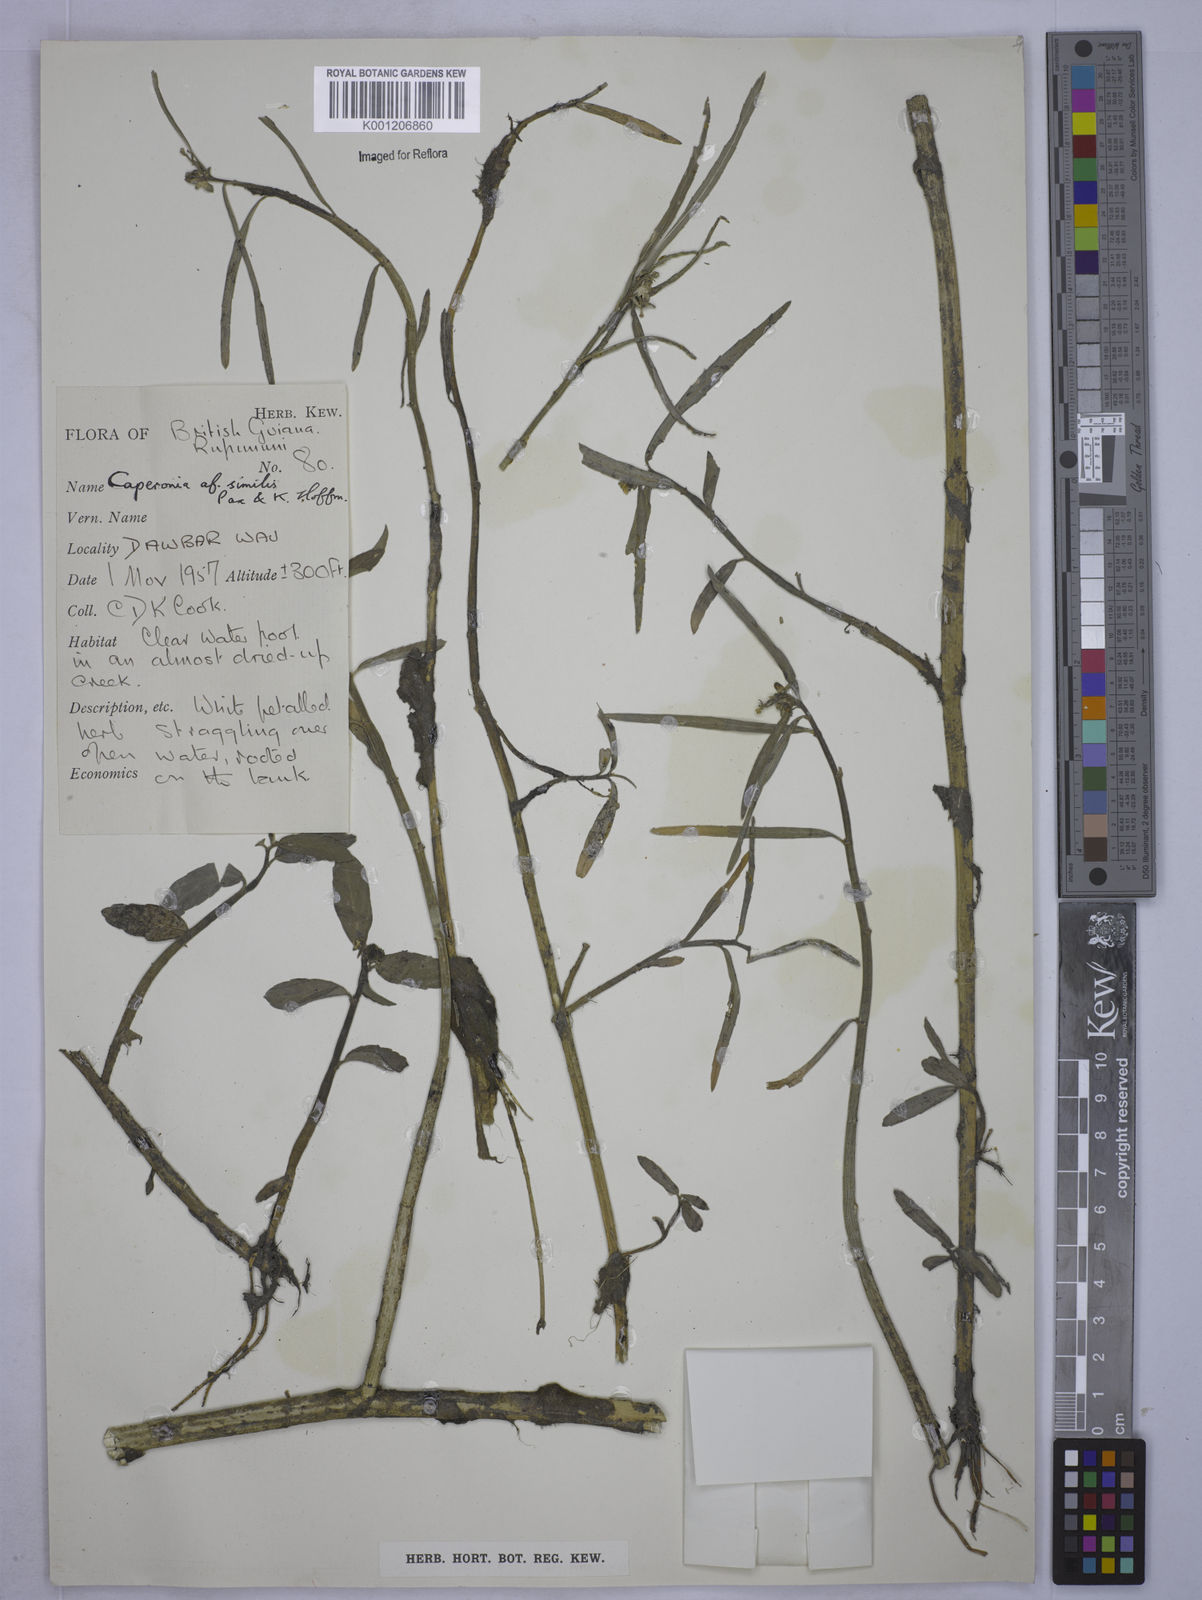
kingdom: Plantae
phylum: Tracheophyta
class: Magnoliopsida
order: Malpighiales
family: Euphorbiaceae
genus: Caperonia
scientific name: Caperonia similis
